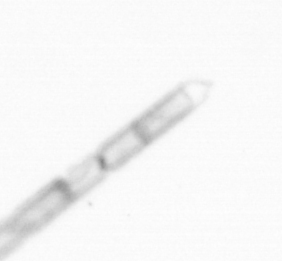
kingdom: Chromista
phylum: Ochrophyta
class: Bacillariophyceae
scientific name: Bacillariophyceae
